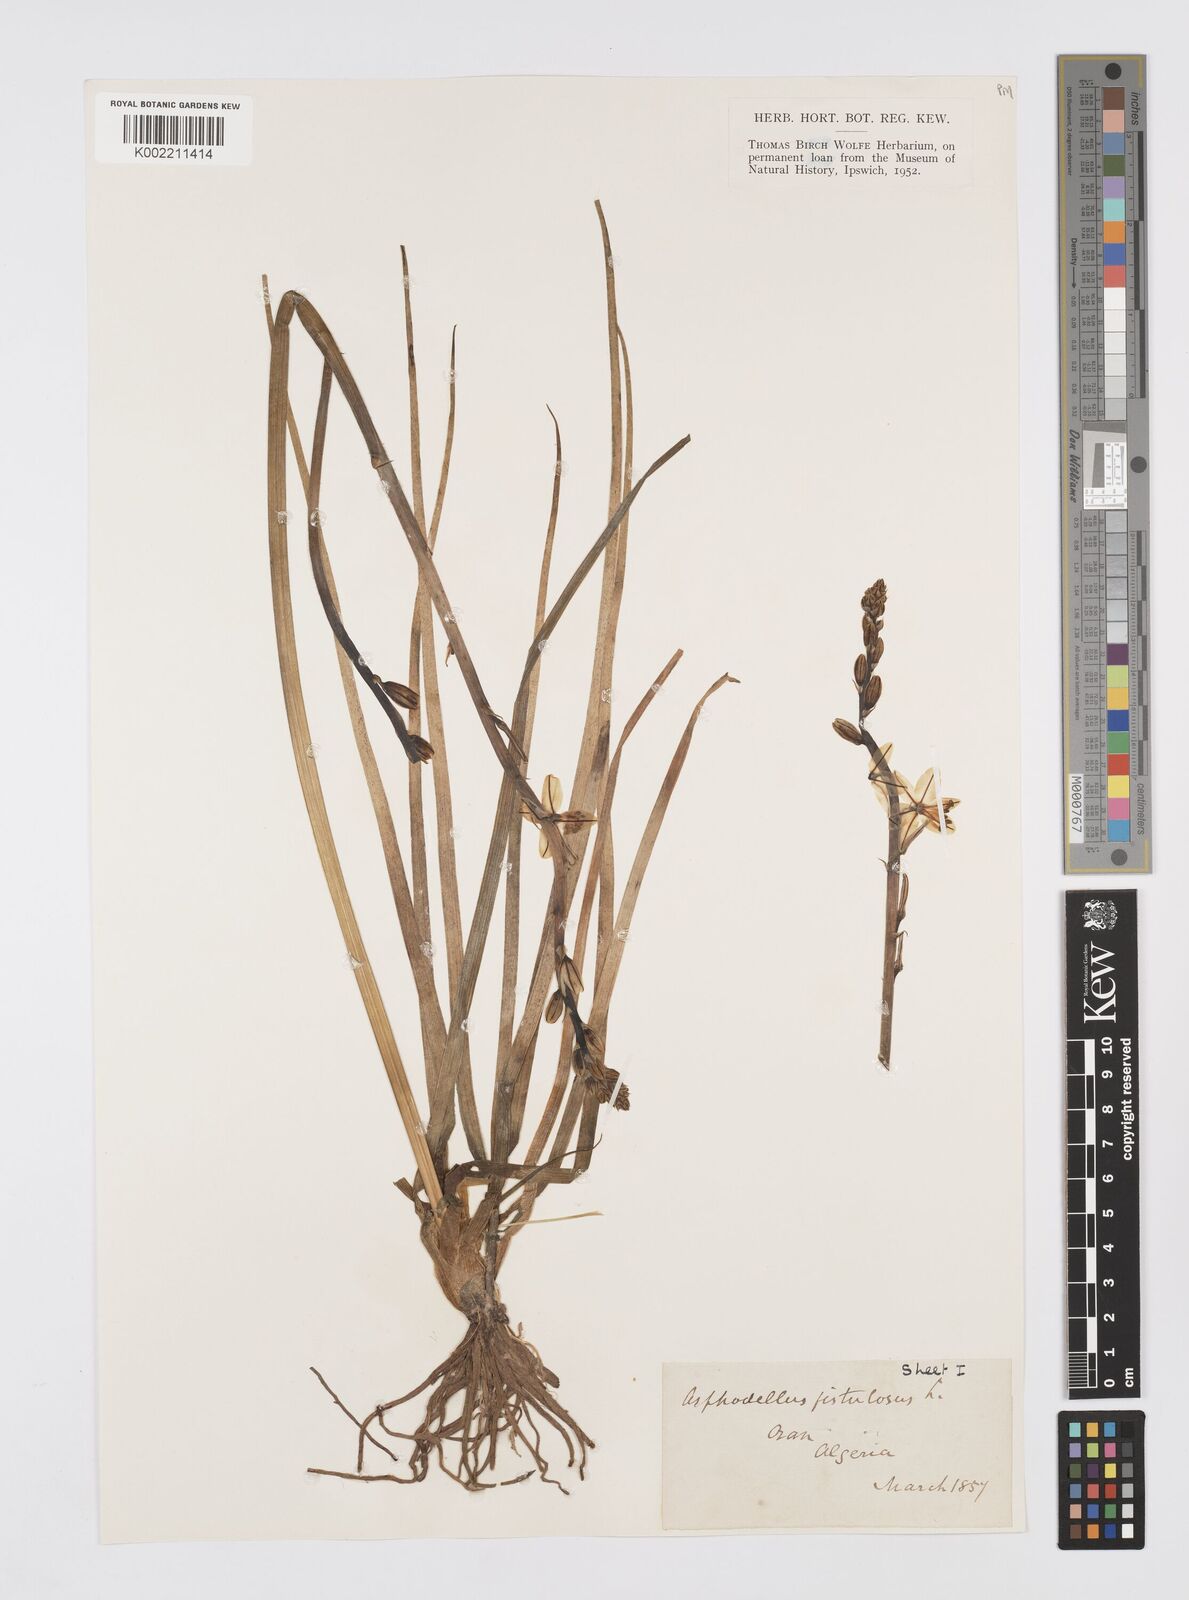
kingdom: Plantae
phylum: Tracheophyta
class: Liliopsida
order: Asparagales
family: Asphodelaceae
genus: Asphodelus
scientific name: Asphodelus fistulosus
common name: Onionweed
